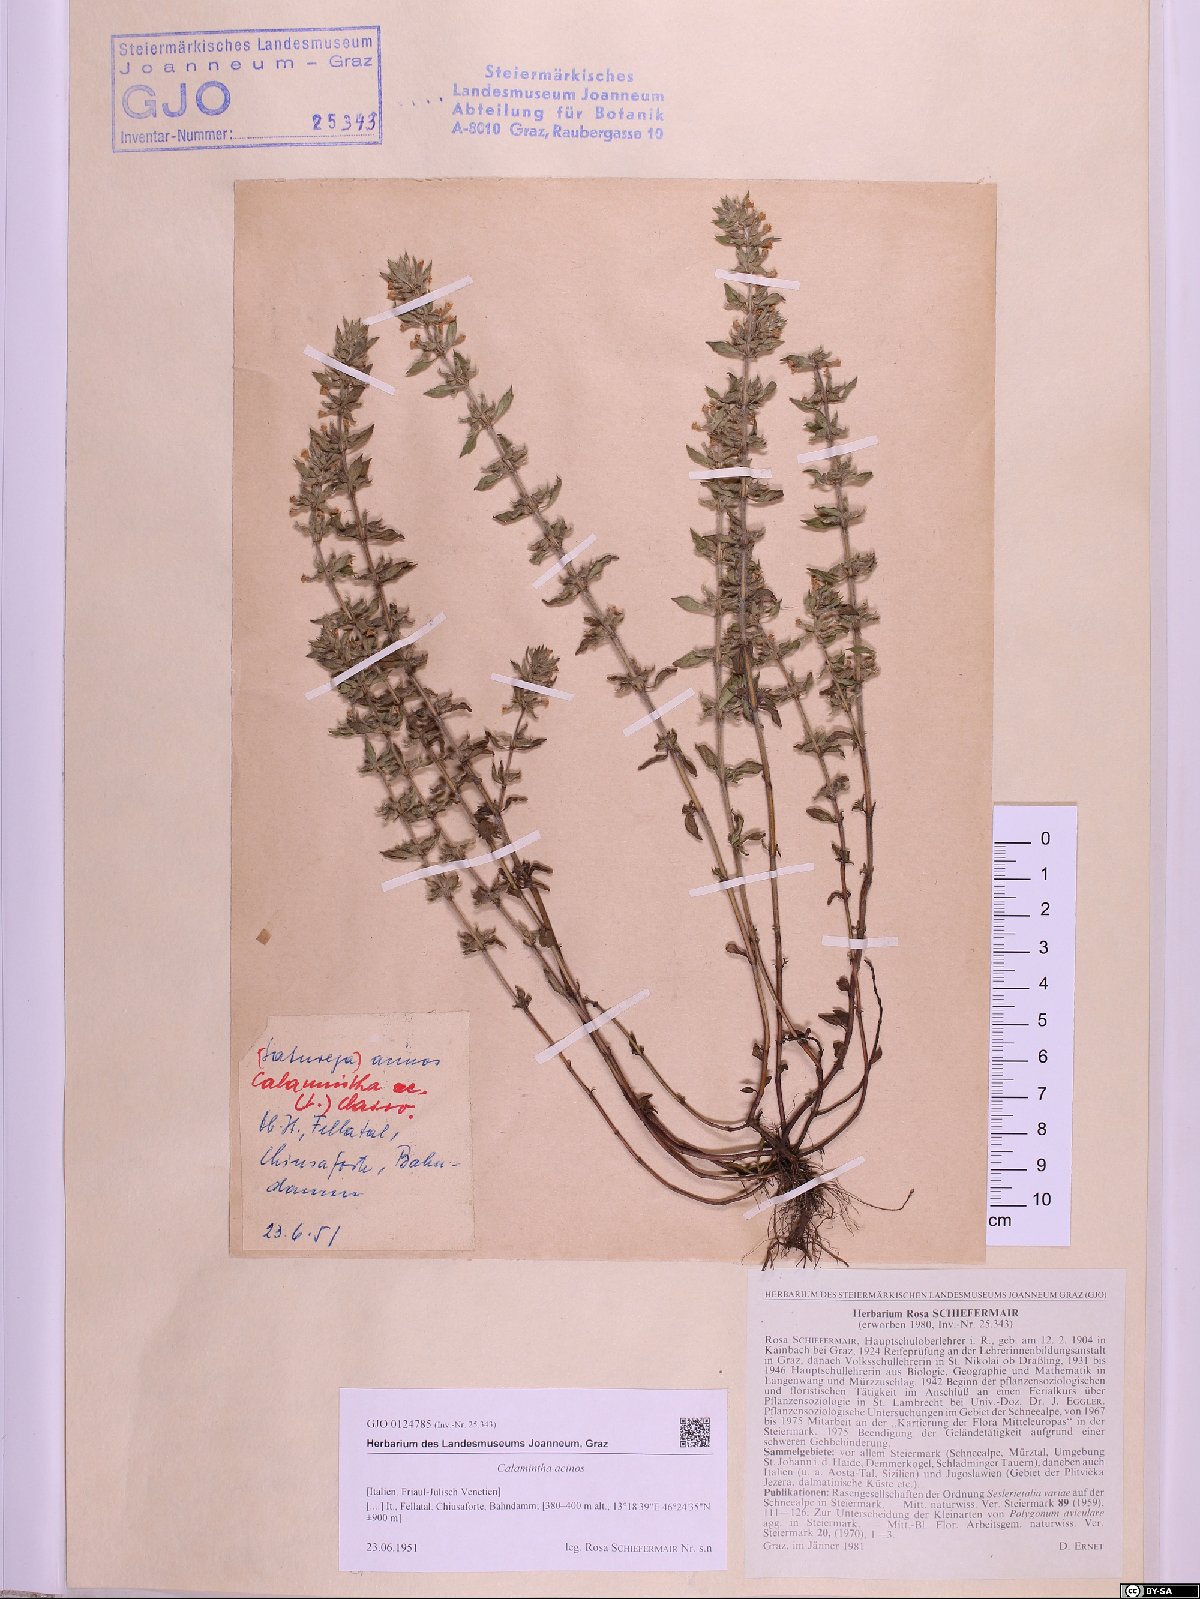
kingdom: Plantae
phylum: Tracheophyta
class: Magnoliopsida
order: Lamiales
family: Lamiaceae
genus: Clinopodium
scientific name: Clinopodium acinos
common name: Basil thyme
